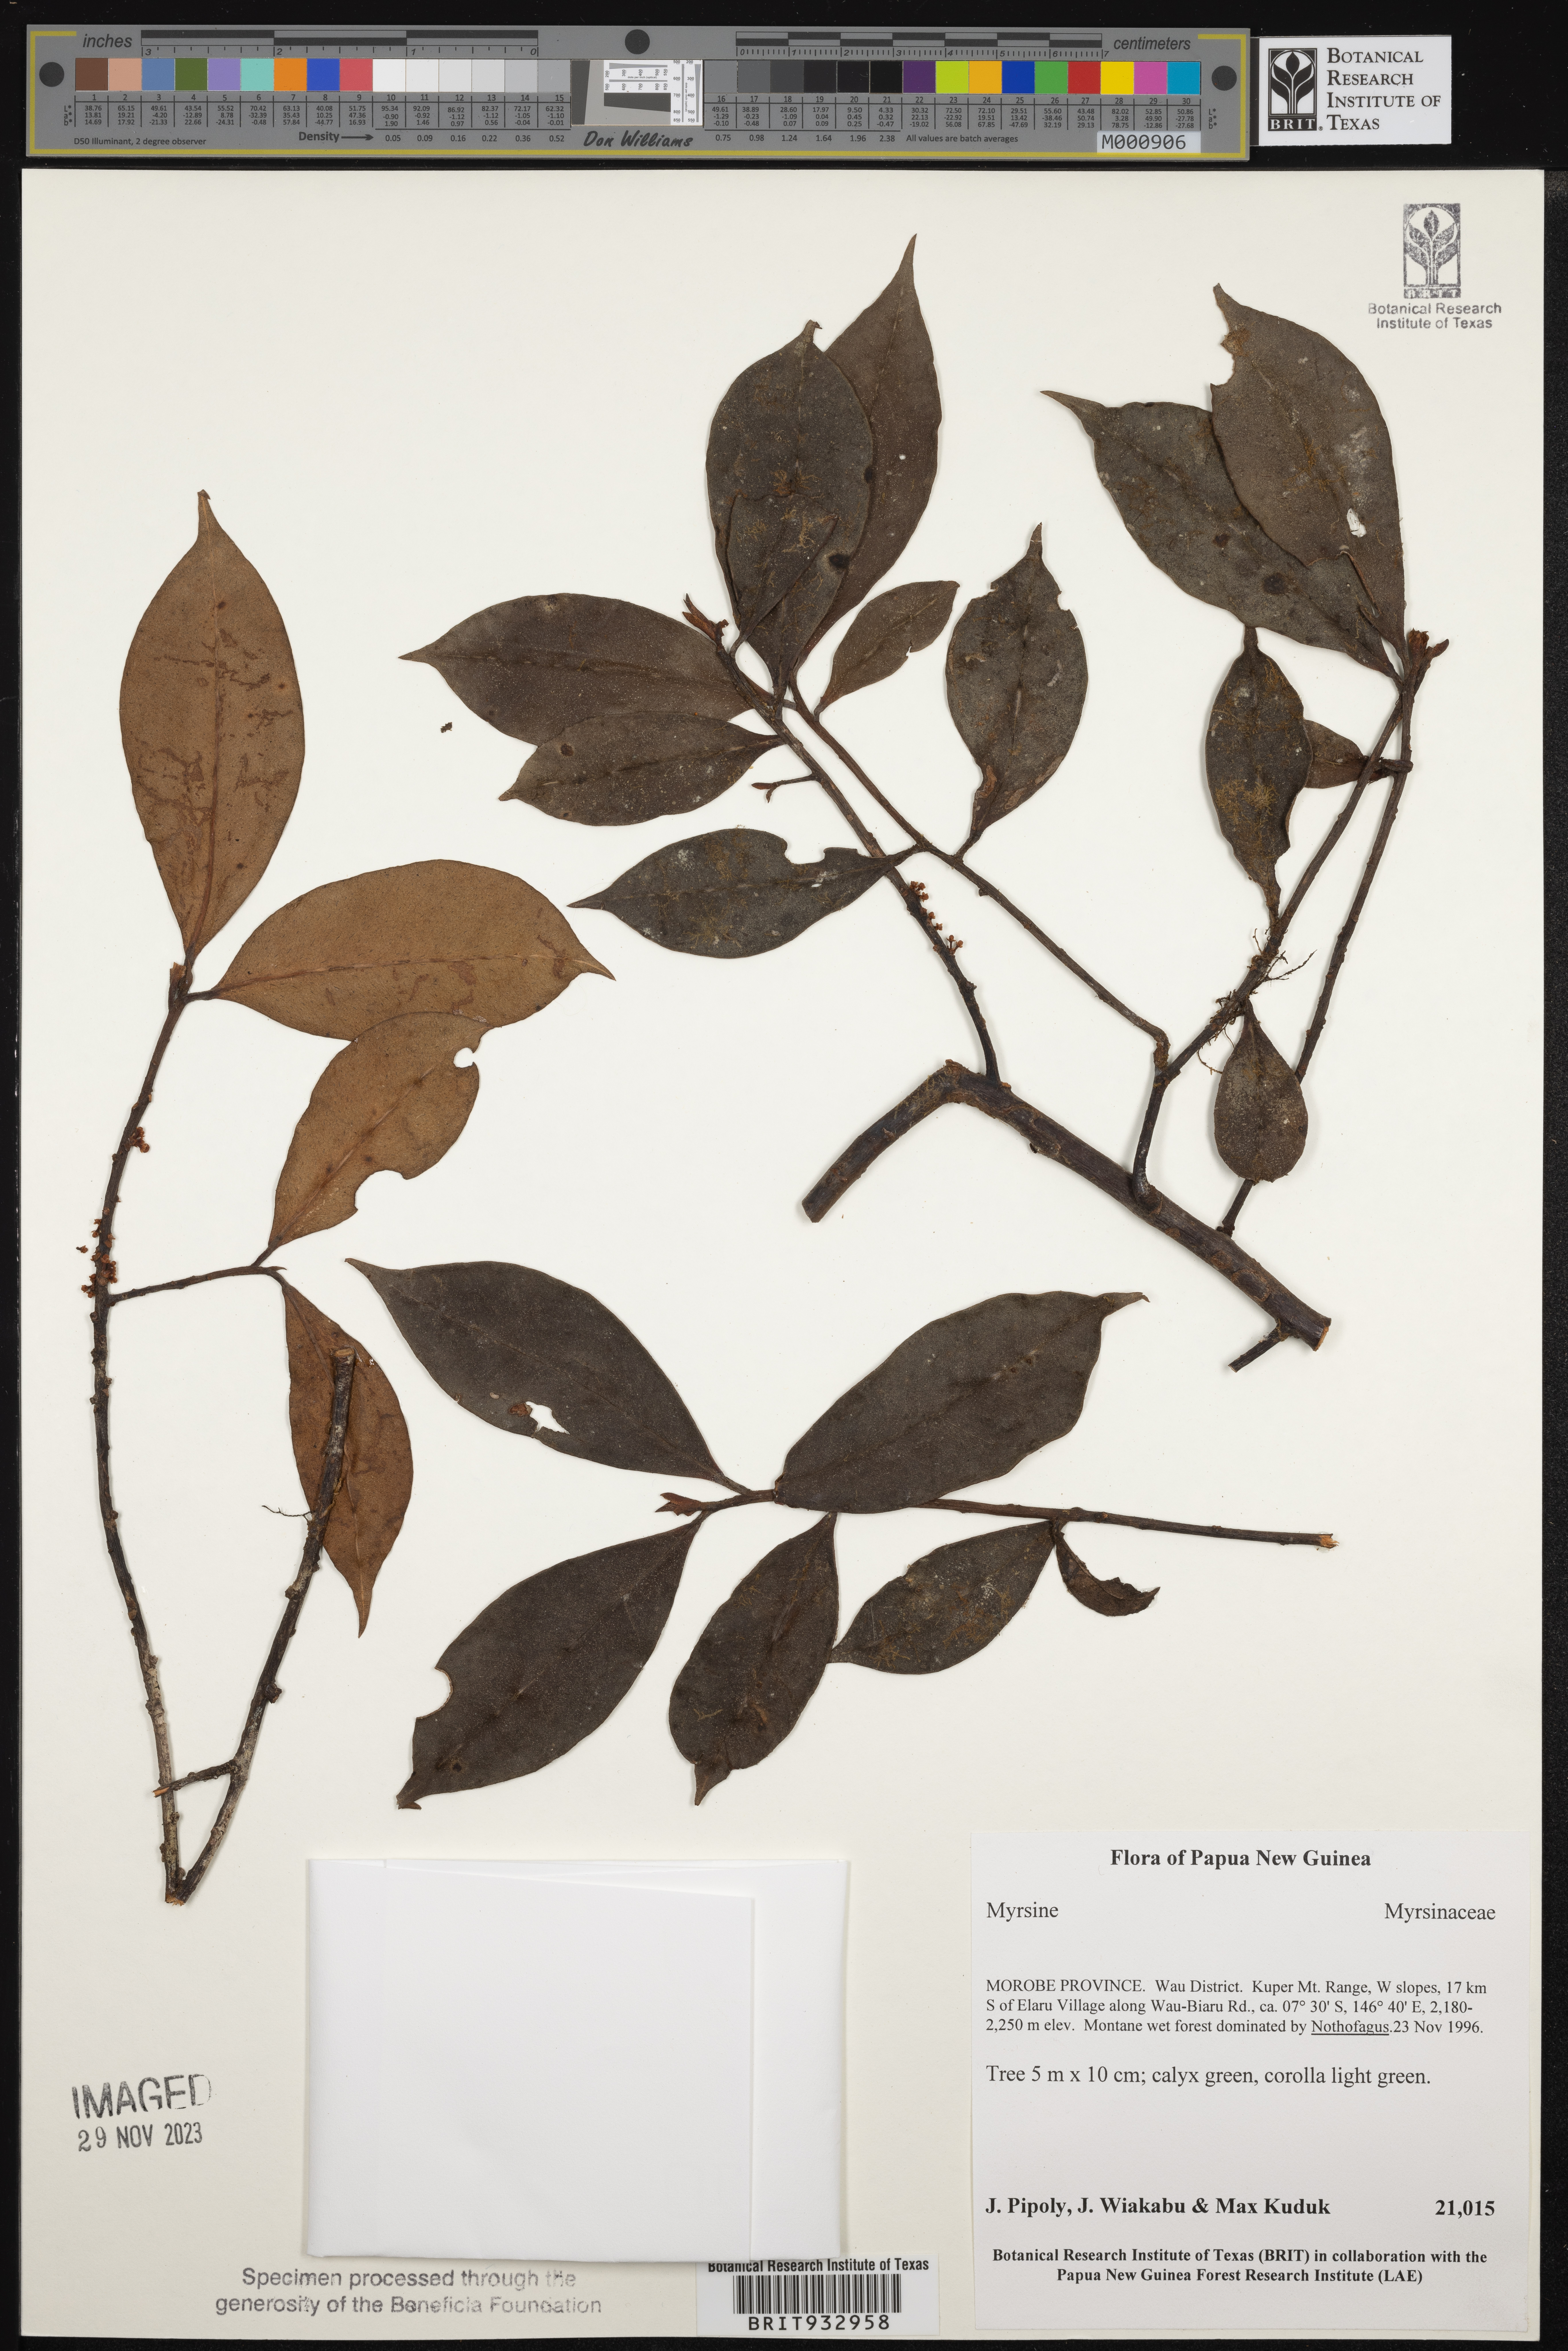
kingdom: Plantae
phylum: Tracheophyta
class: Magnoliopsida
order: Ericales
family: Primulaceae
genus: Myrsine
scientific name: Myrsine
